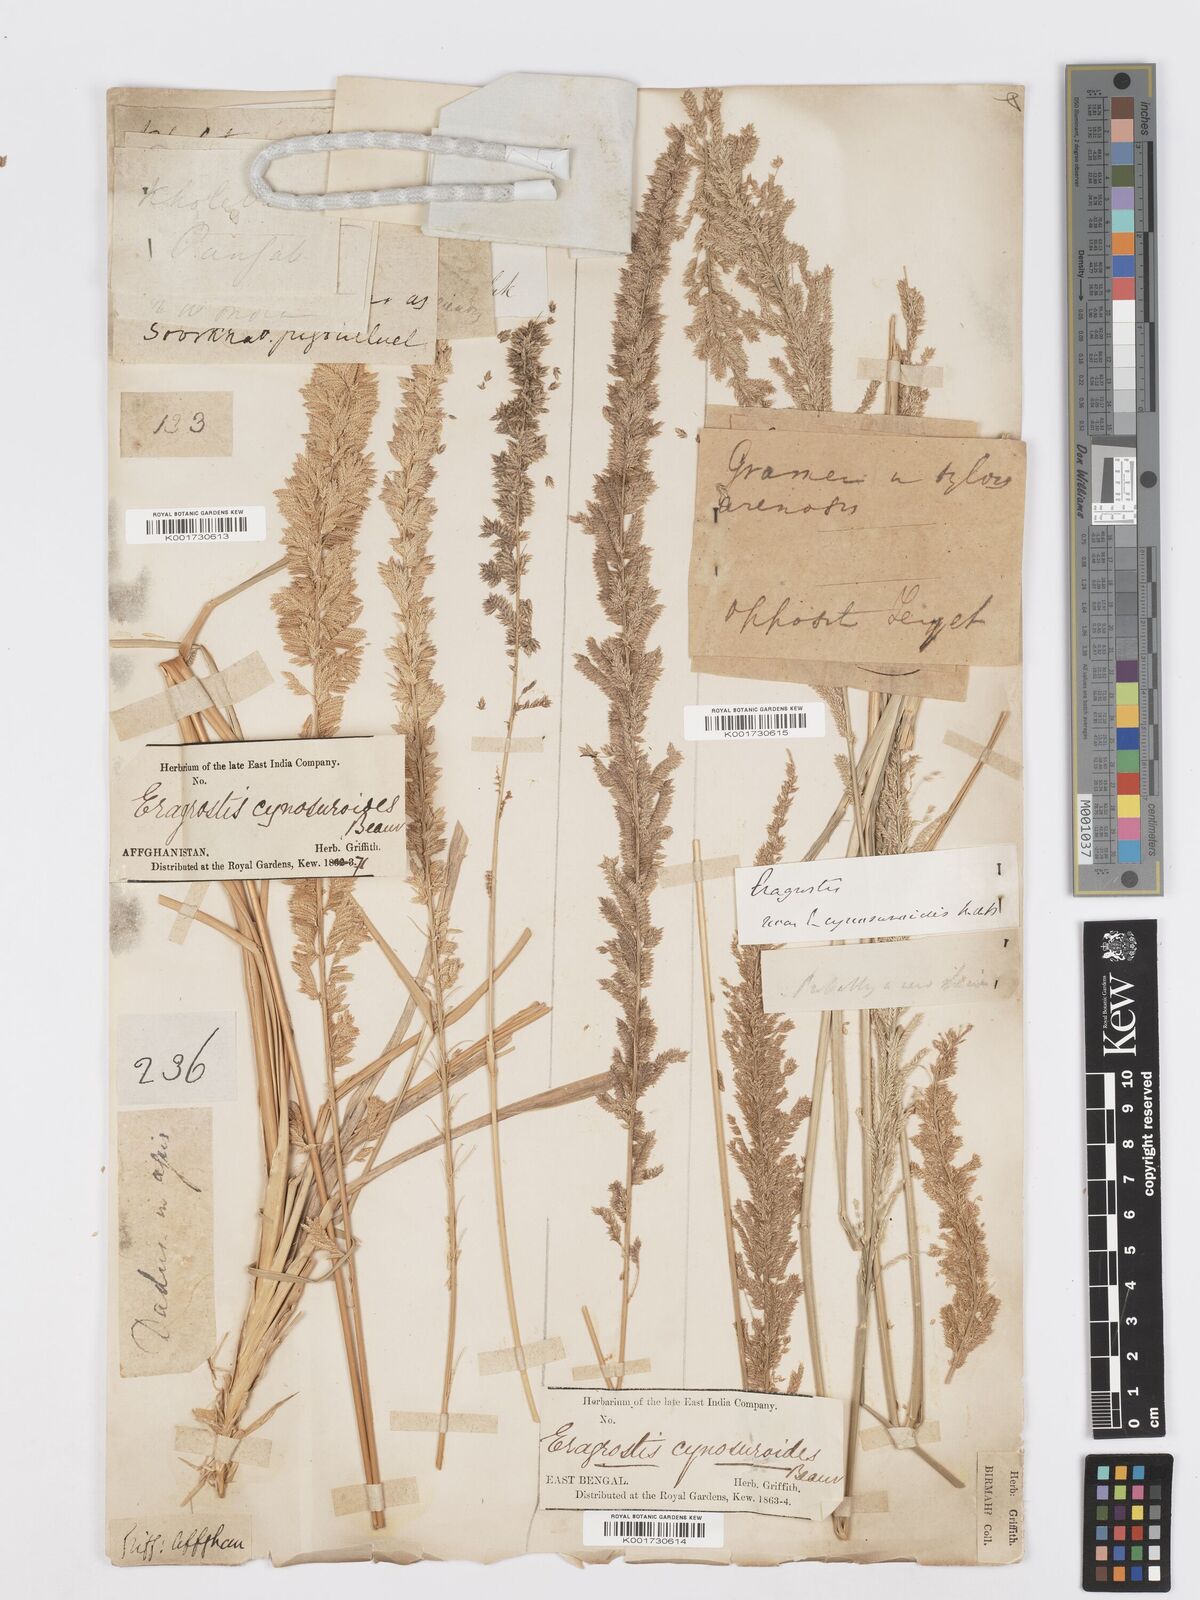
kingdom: Plantae
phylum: Tracheophyta
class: Liliopsida
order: Poales
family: Poaceae
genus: Desmostachya
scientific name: Desmostachya bipinnata
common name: Crowfoot grass
